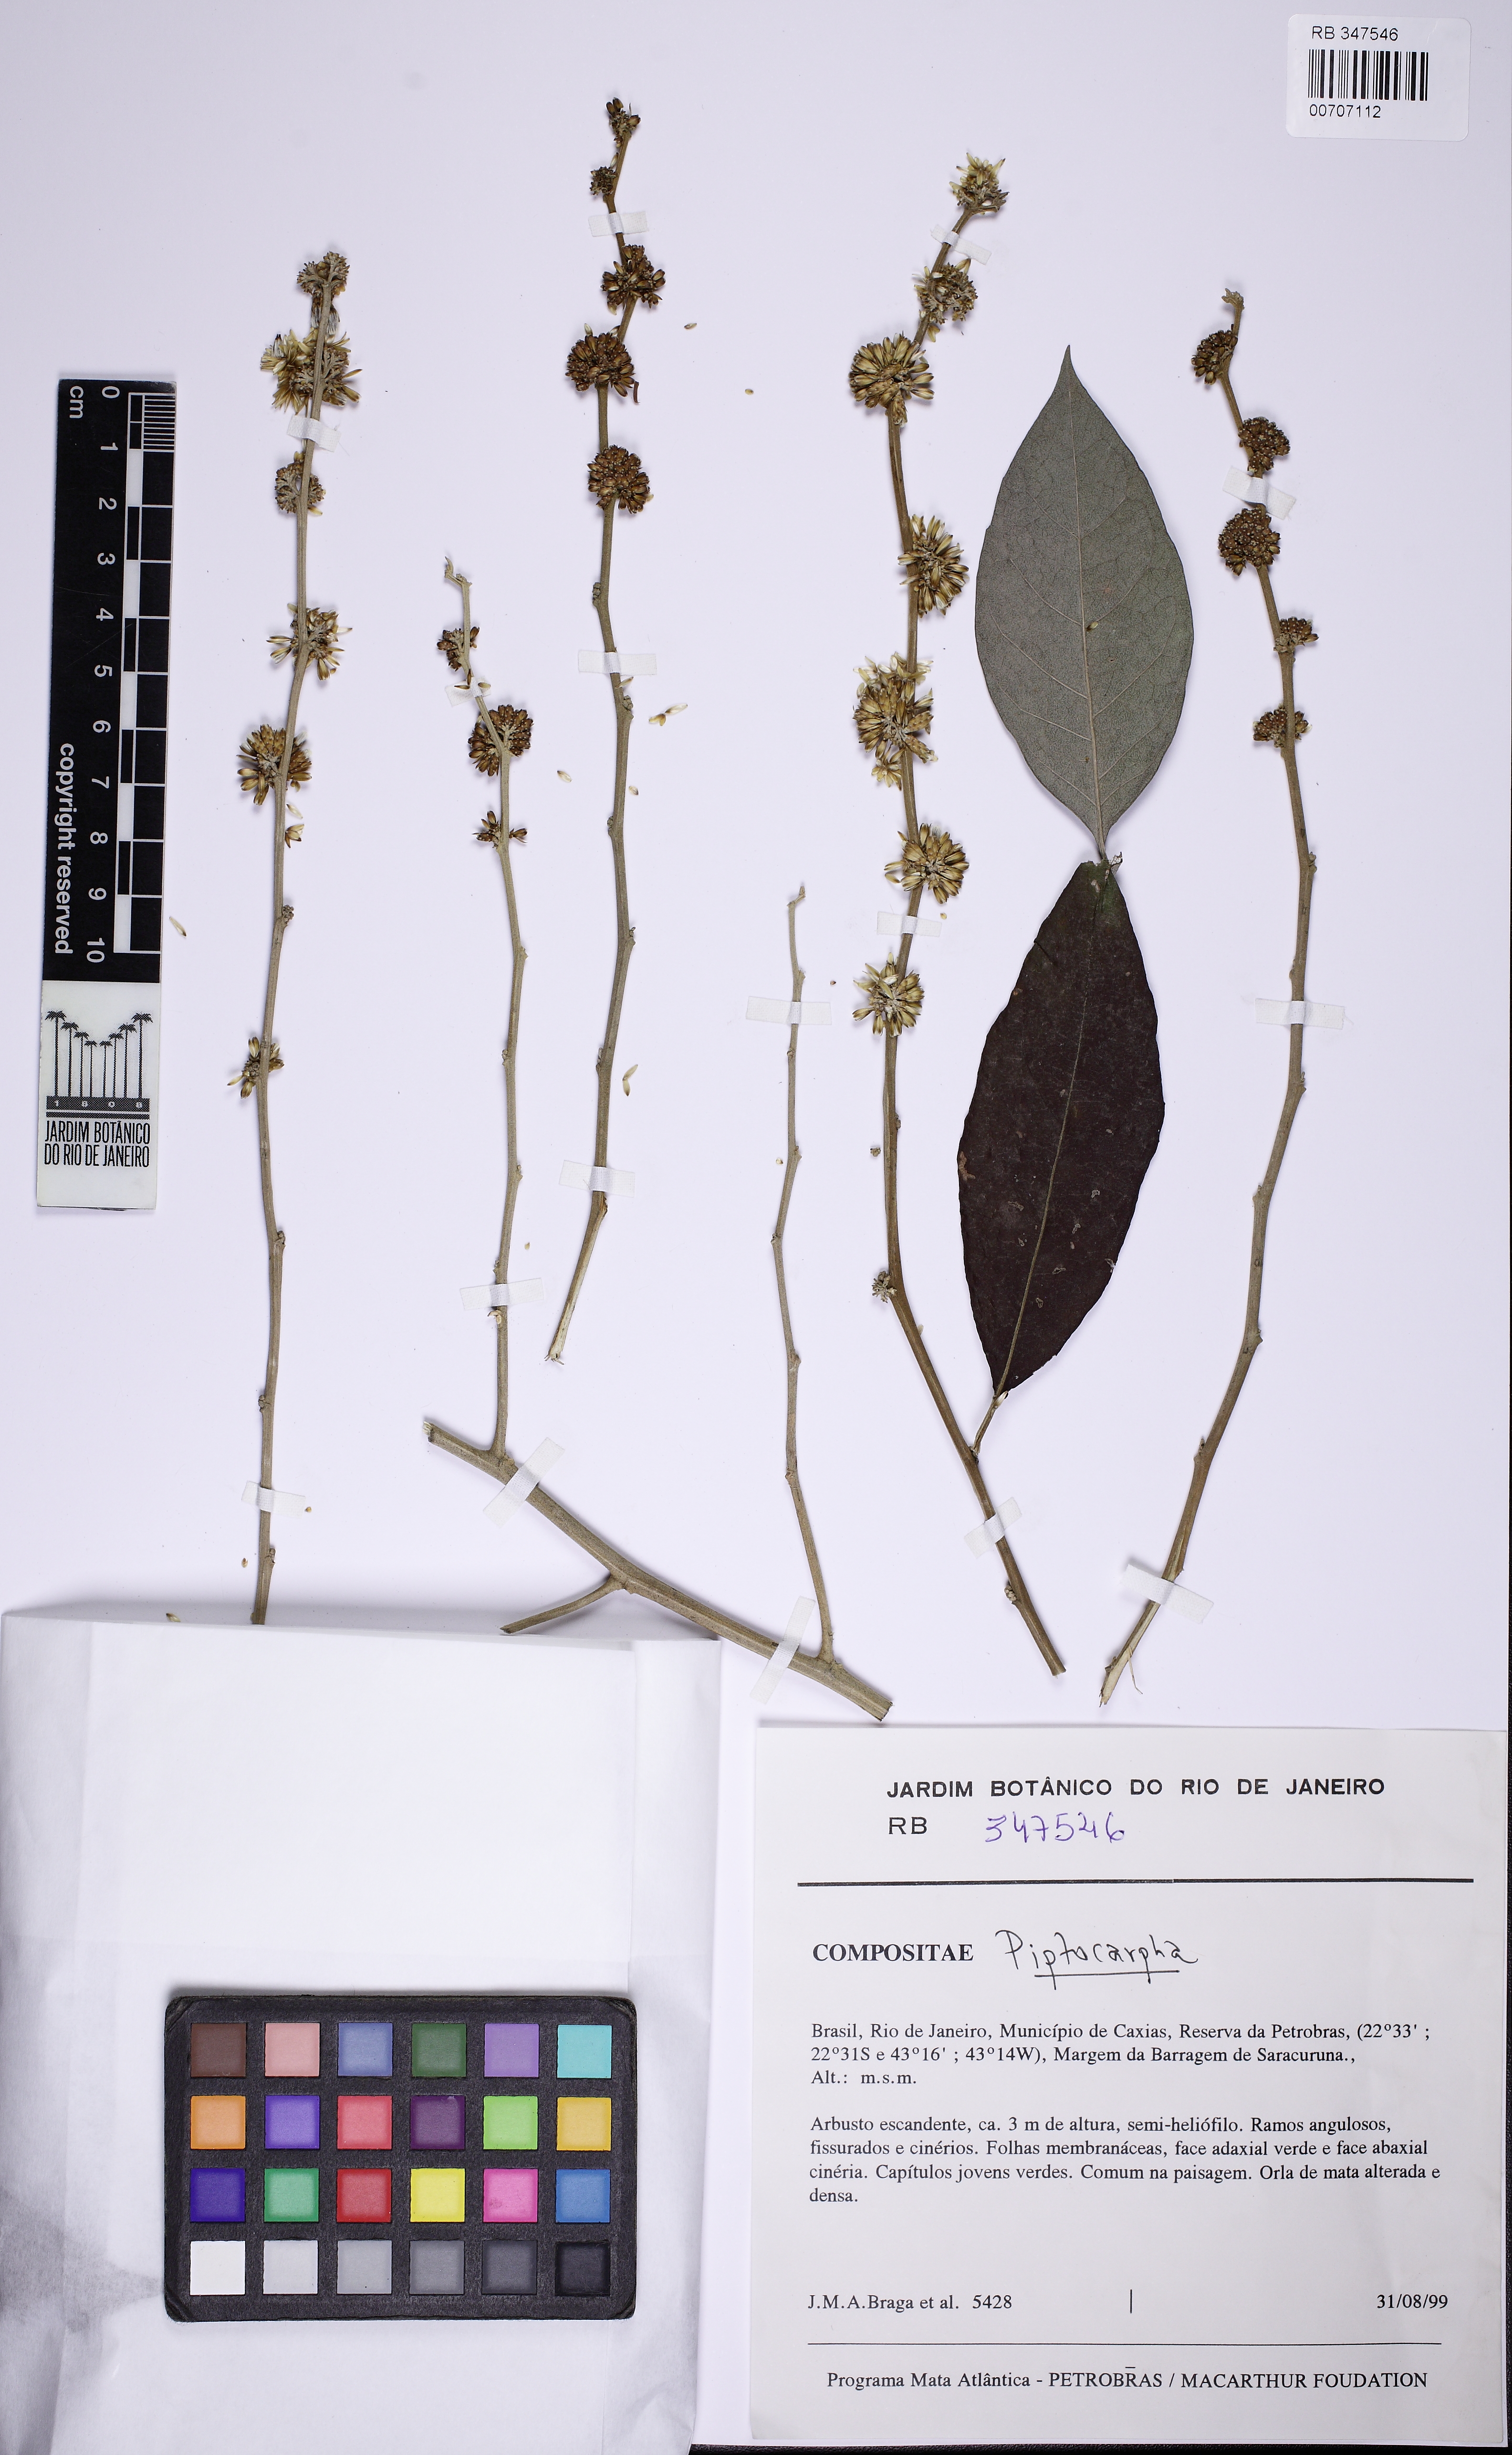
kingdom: Plantae
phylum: Tracheophyta
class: Magnoliopsida
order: Asterales
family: Asteraceae
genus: Piptocarpha
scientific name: Piptocarpha notata
